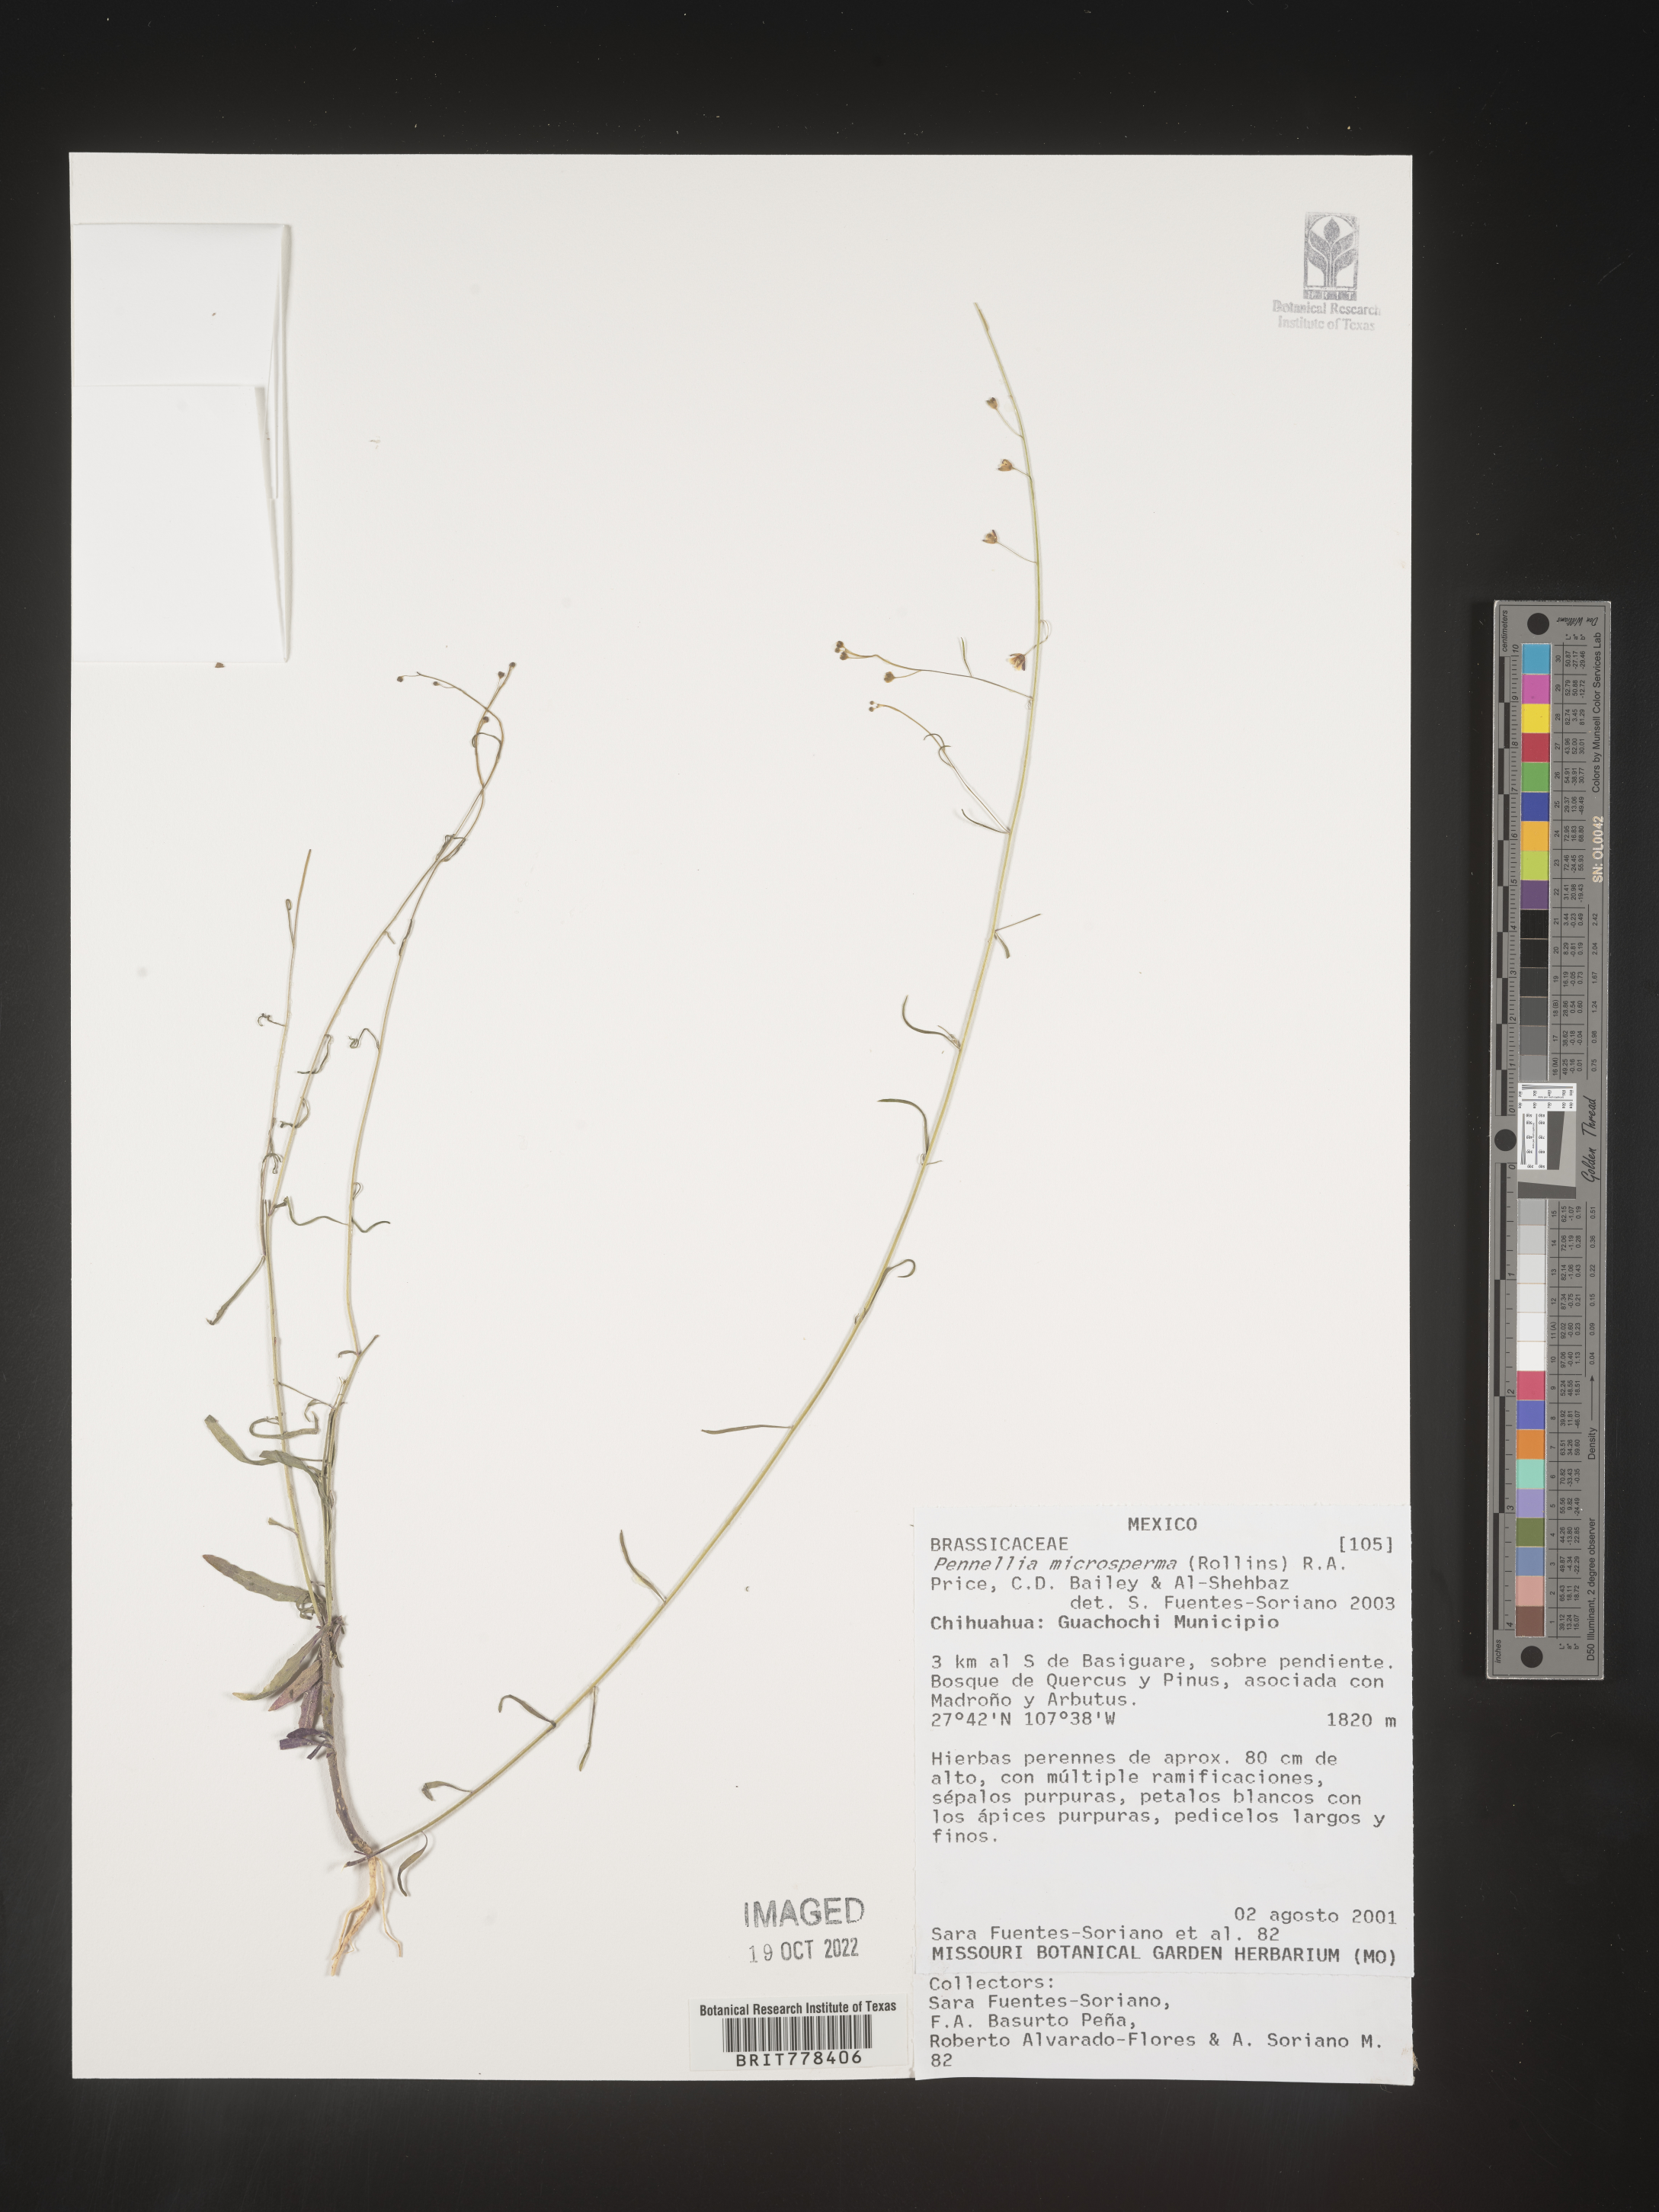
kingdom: Plantae
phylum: Tracheophyta
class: Magnoliopsida
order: Brassicales
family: Brassicaceae
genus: Pennellia
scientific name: Pennellia
